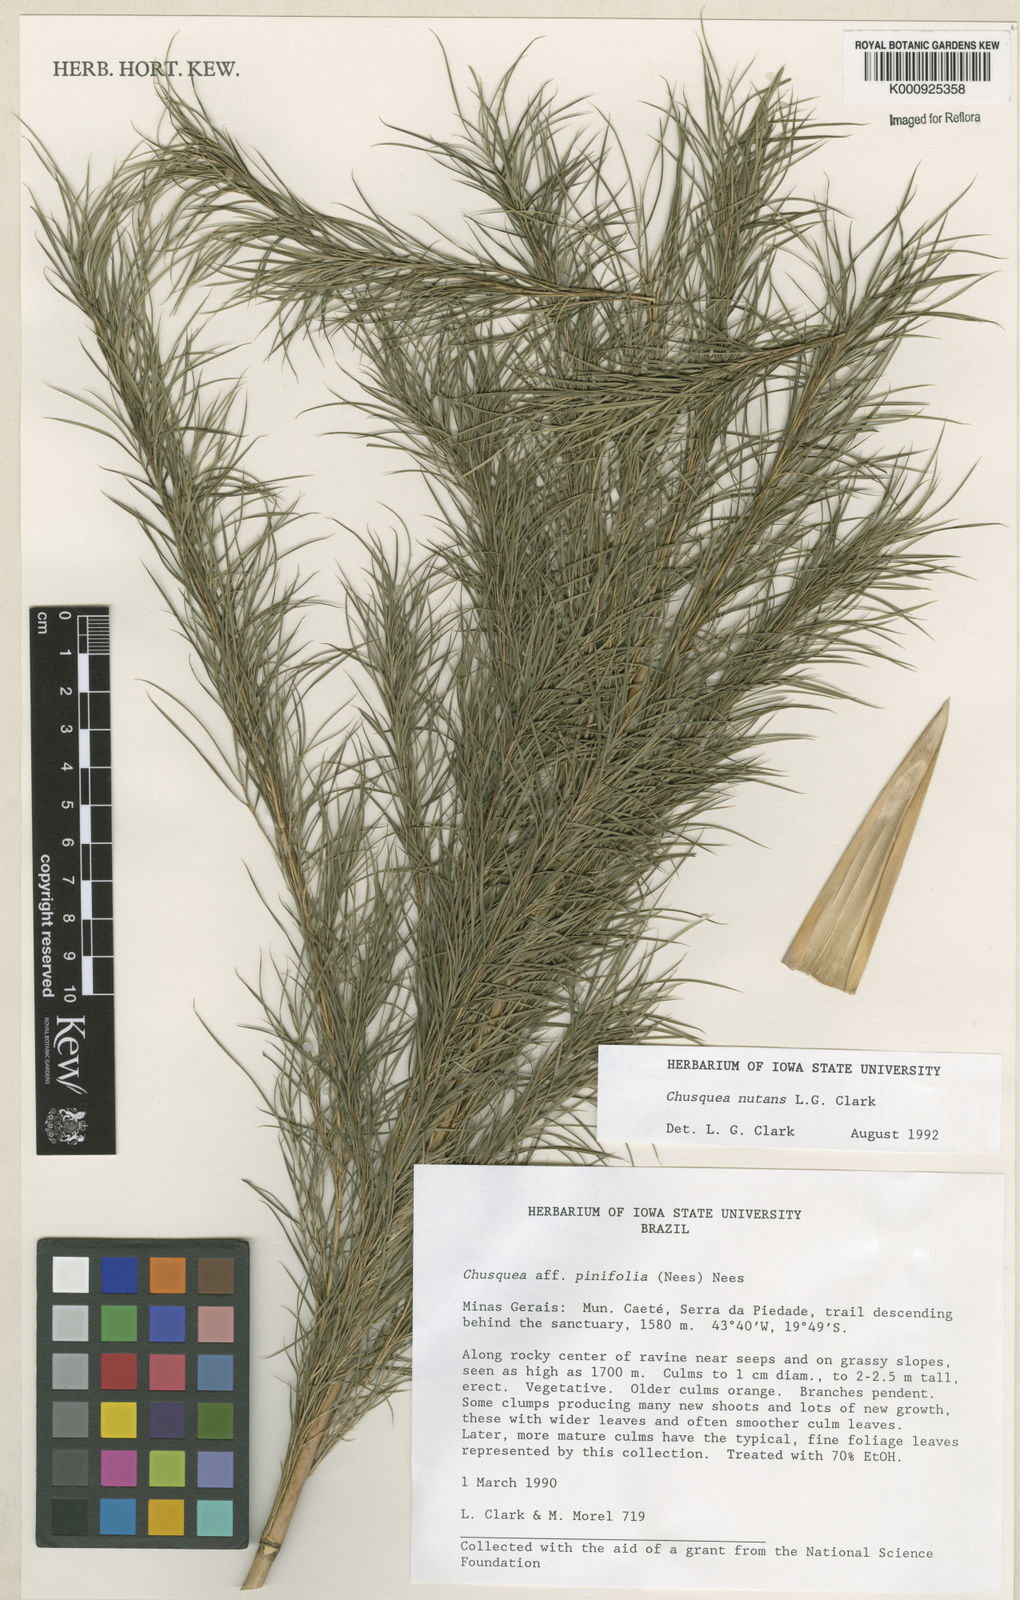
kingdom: Plantae
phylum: Tracheophyta
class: Liliopsida
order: Poales
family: Poaceae
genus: Chusquea
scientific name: Chusquea nutans
